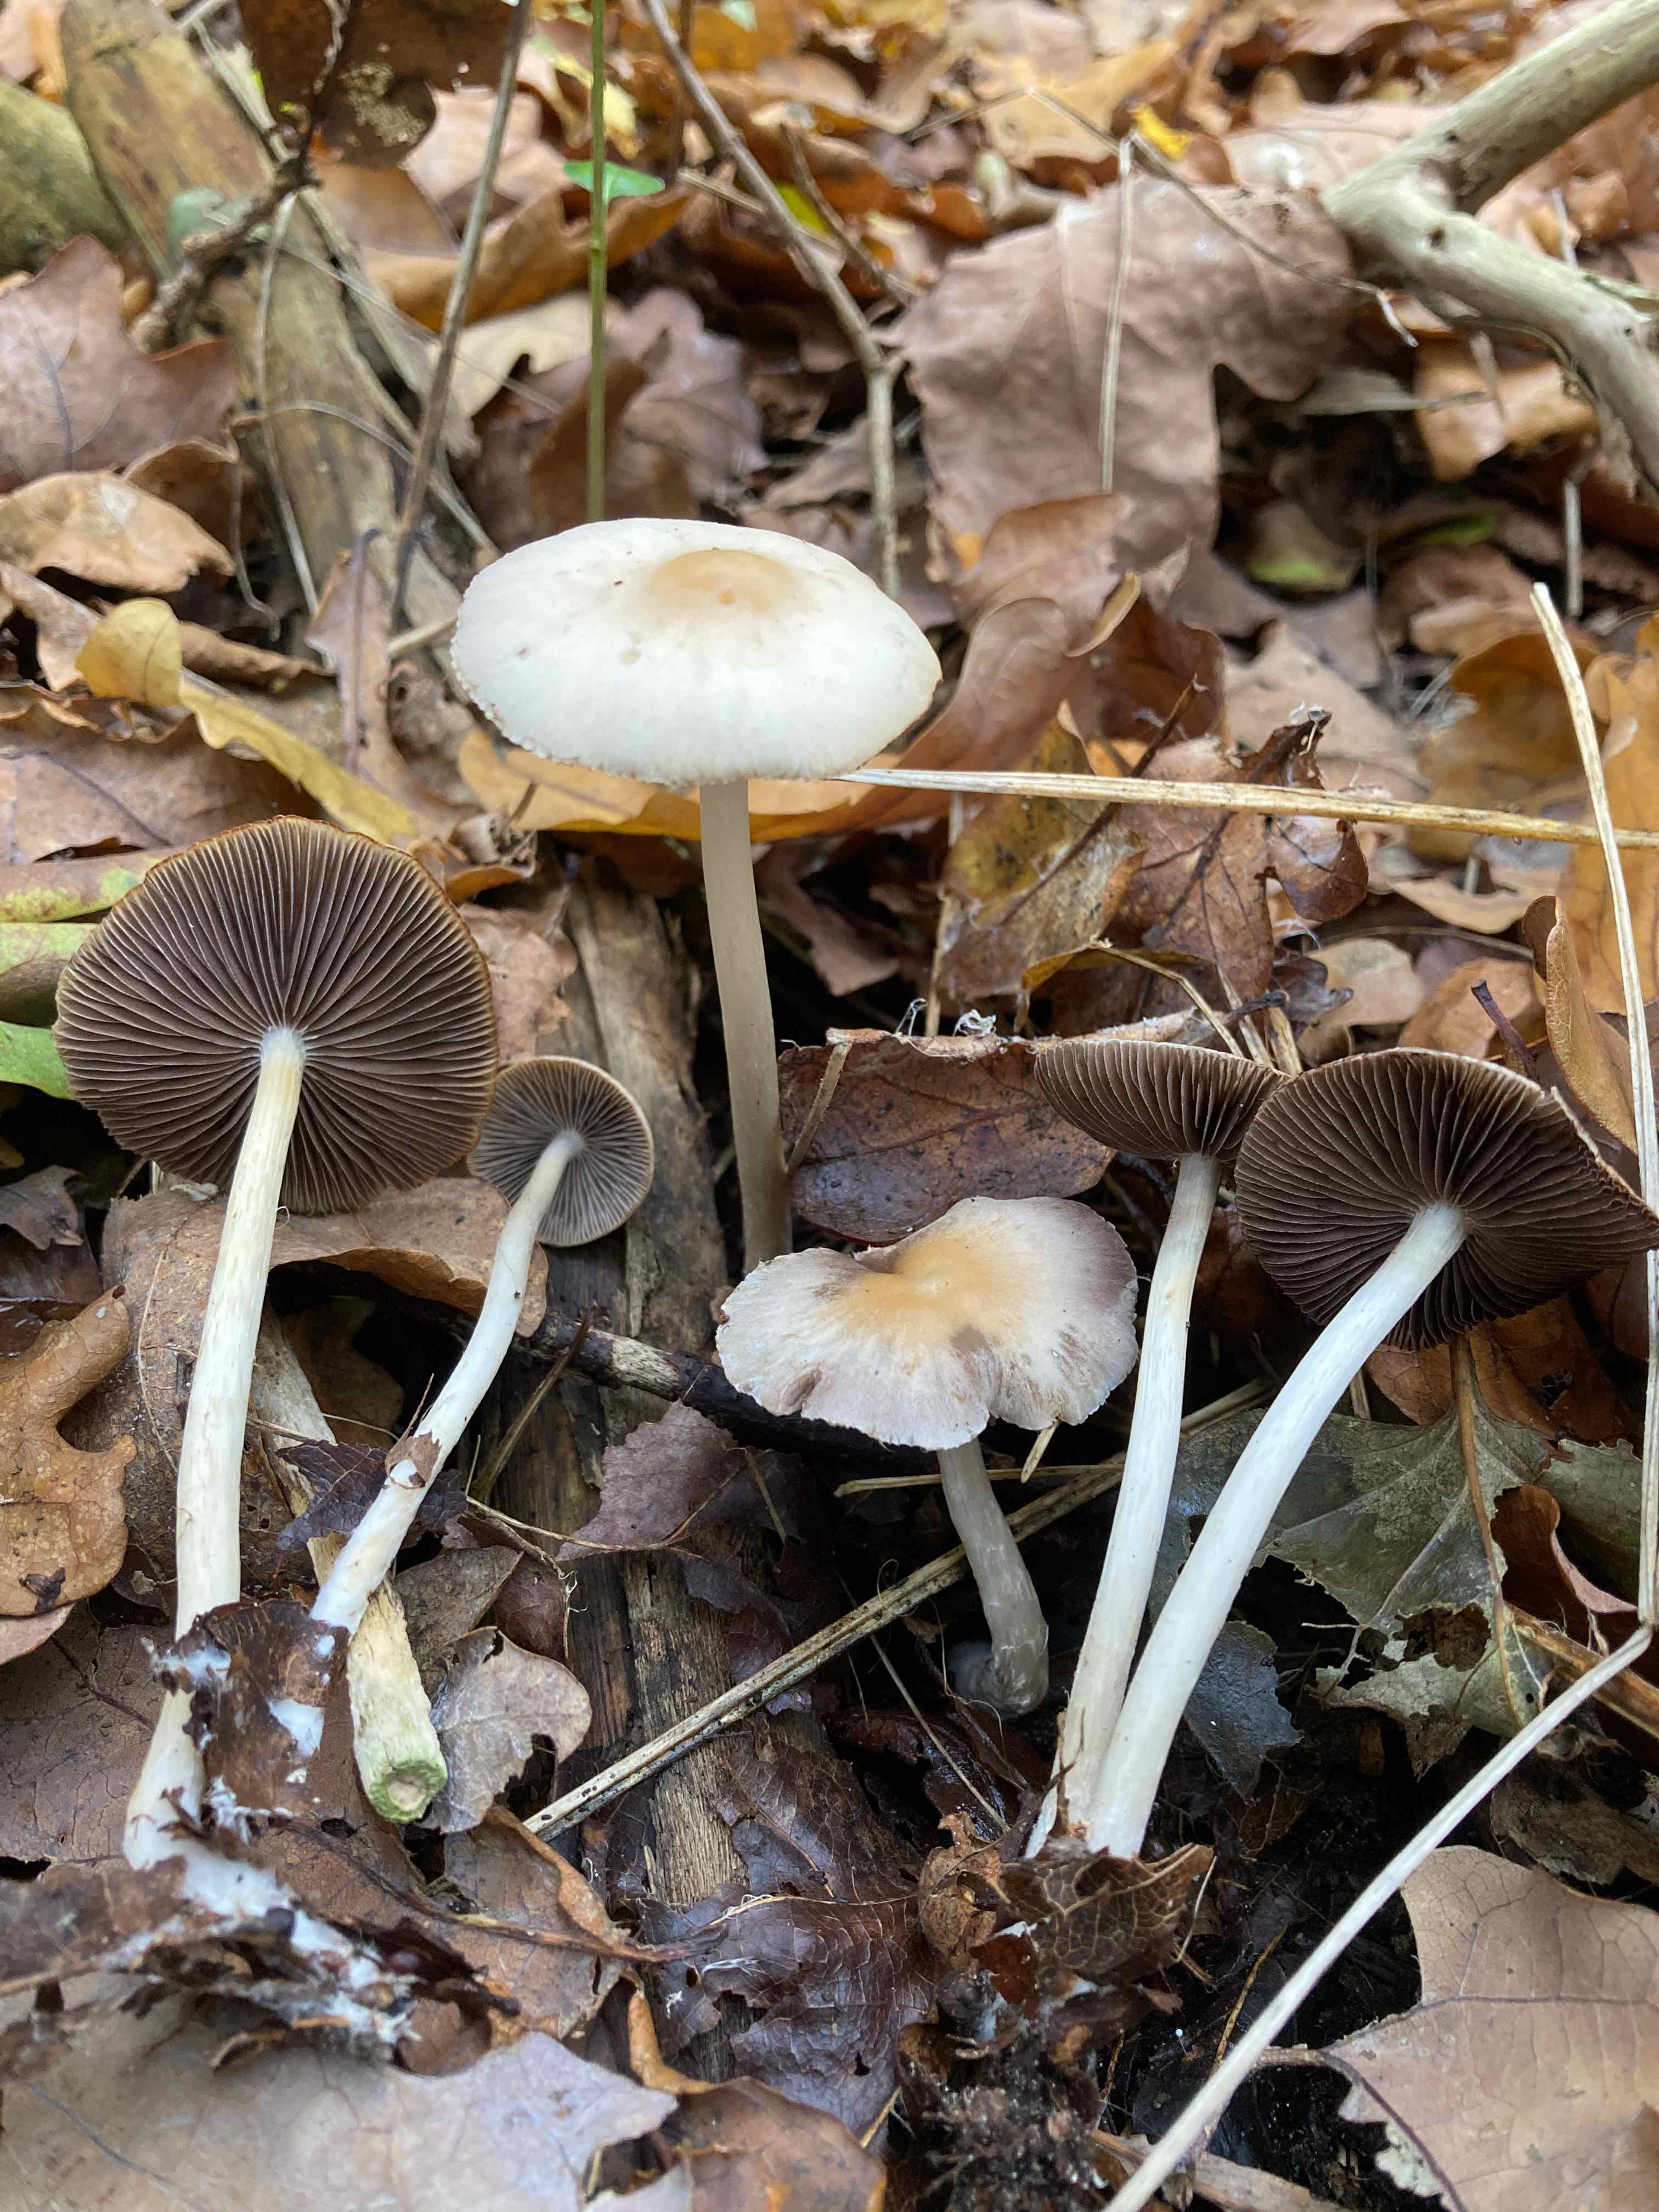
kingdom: Fungi
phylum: Basidiomycota
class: Agaricomycetes
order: Agaricales
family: Psathyrellaceae
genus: Psathyrella
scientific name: Psathyrella spadiceogrisea
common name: gråbrun mørkhat
